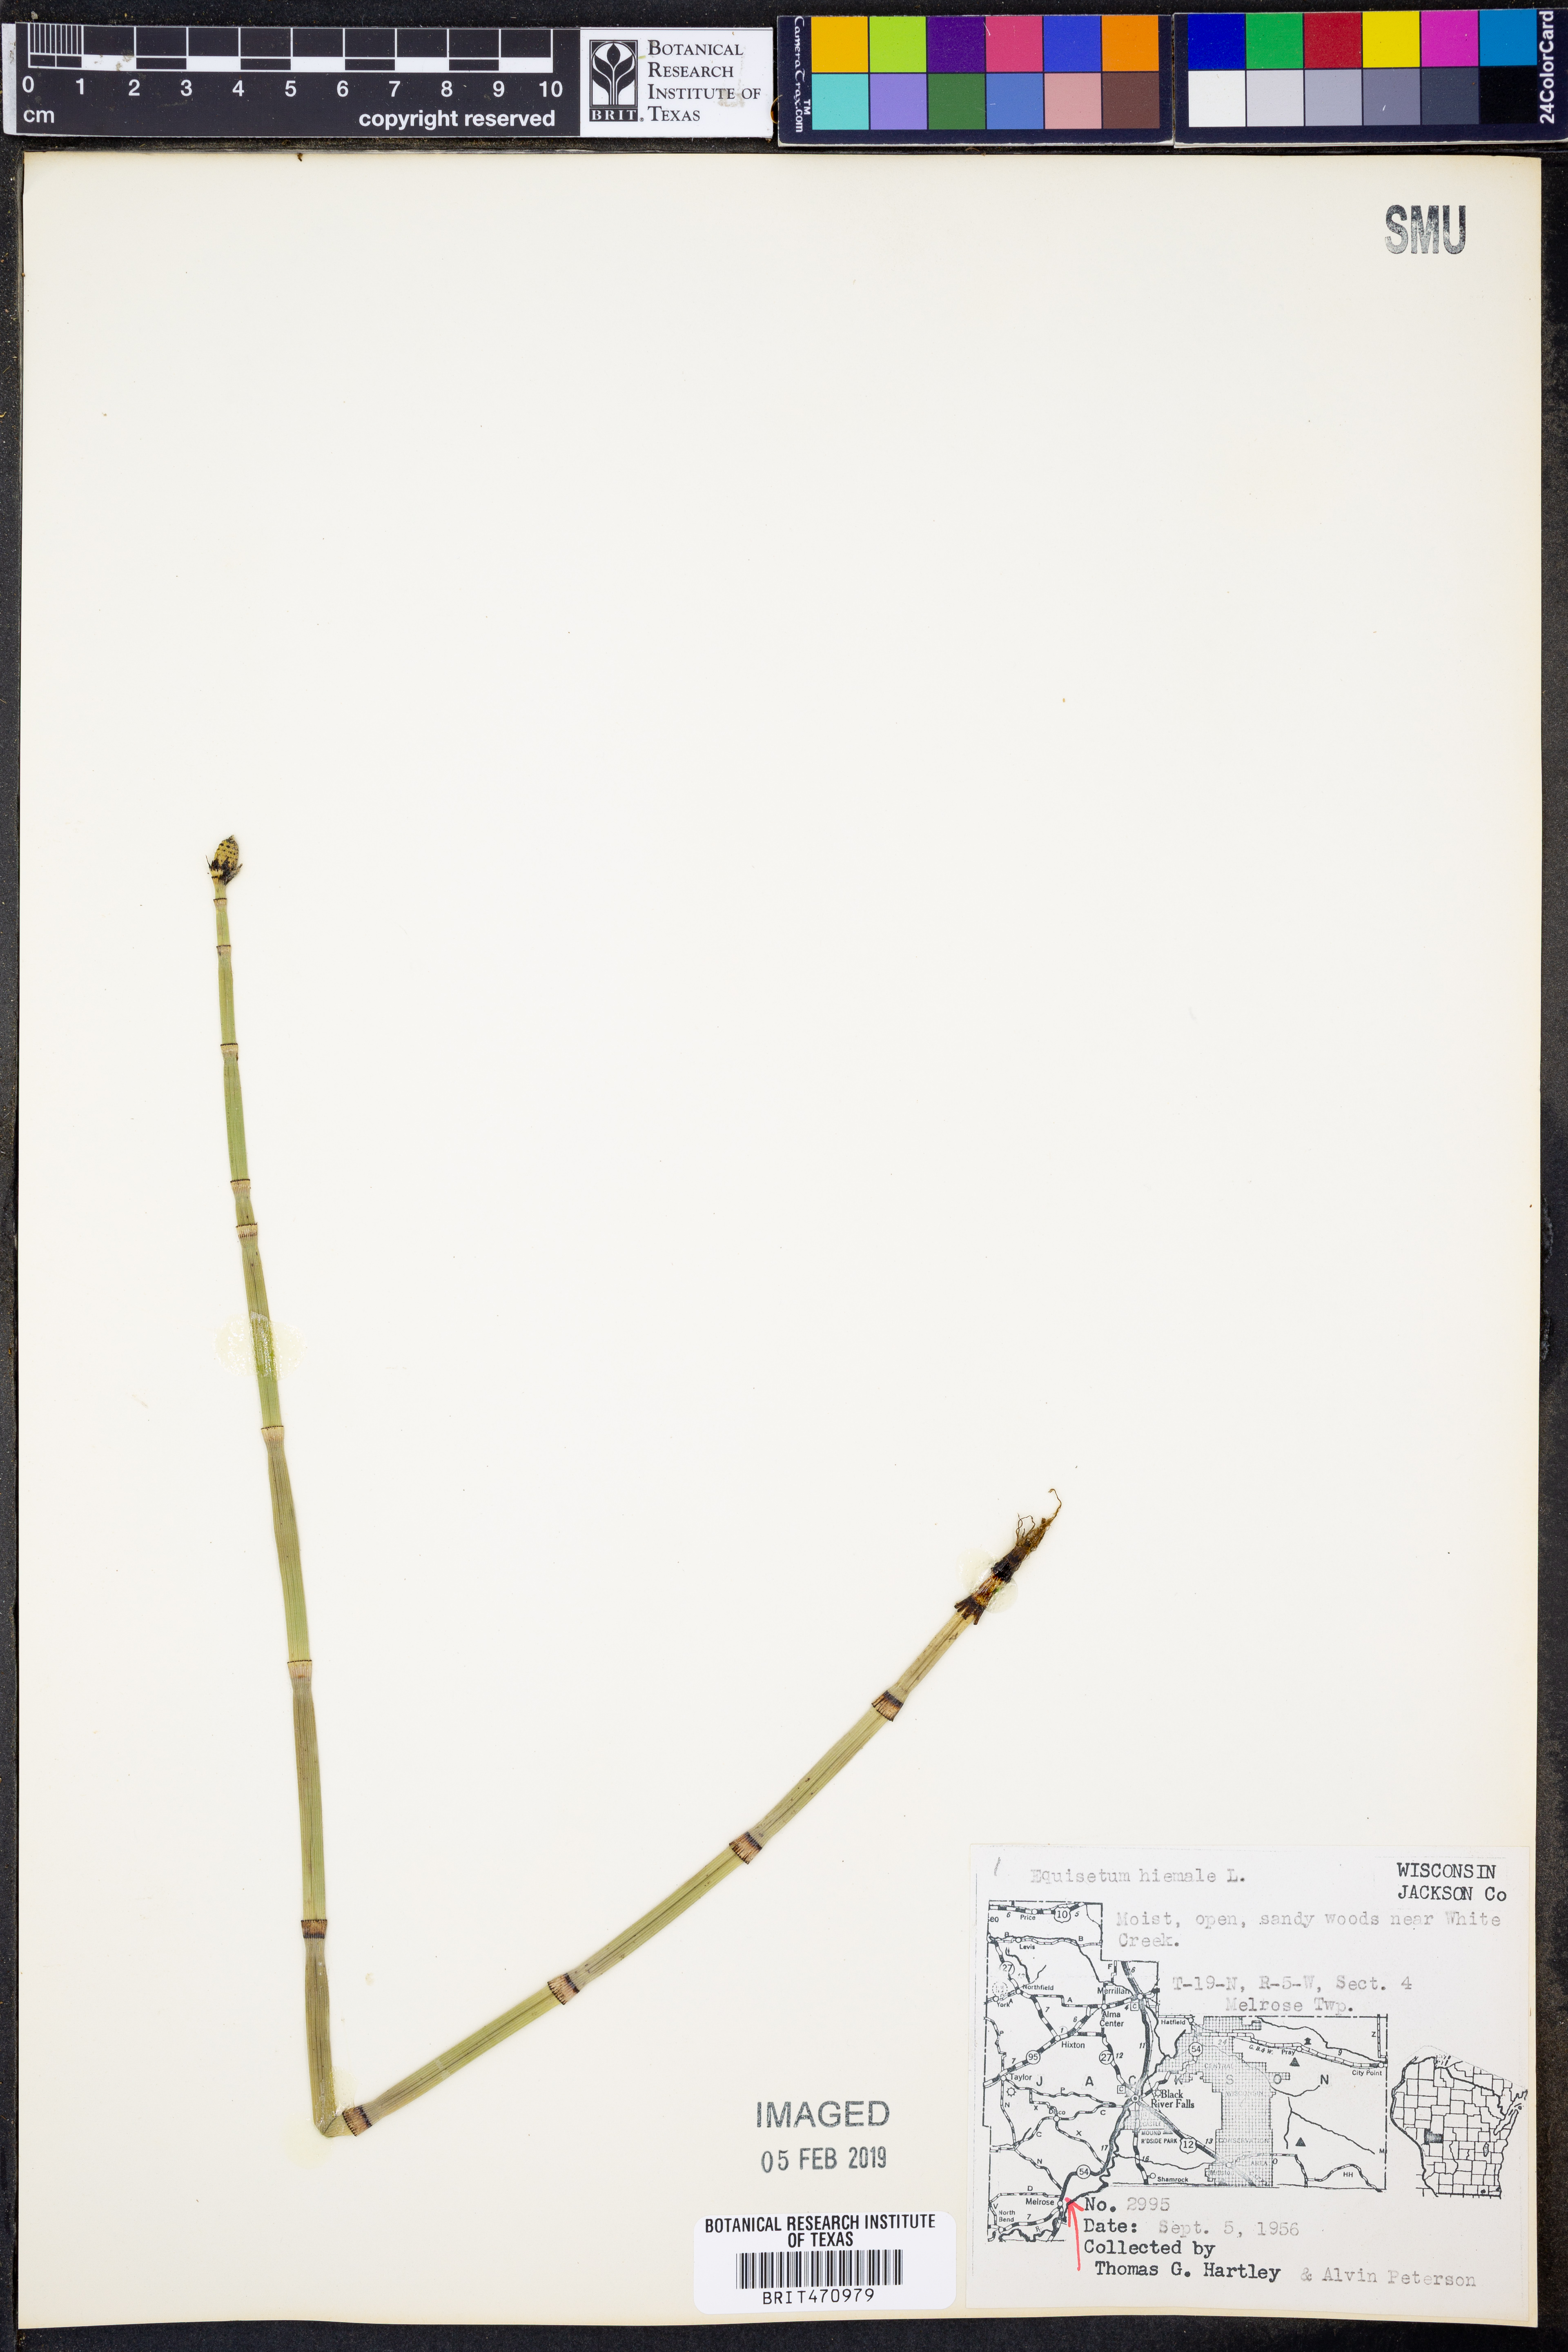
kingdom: Plantae
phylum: Tracheophyta
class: Polypodiopsida
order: Equisetales
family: Equisetaceae
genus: Equisetum
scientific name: Equisetum hyemale
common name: Rough horsetail
